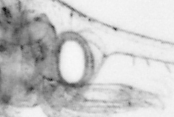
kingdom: Animalia
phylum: Annelida
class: Polychaeta
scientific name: Polychaeta
